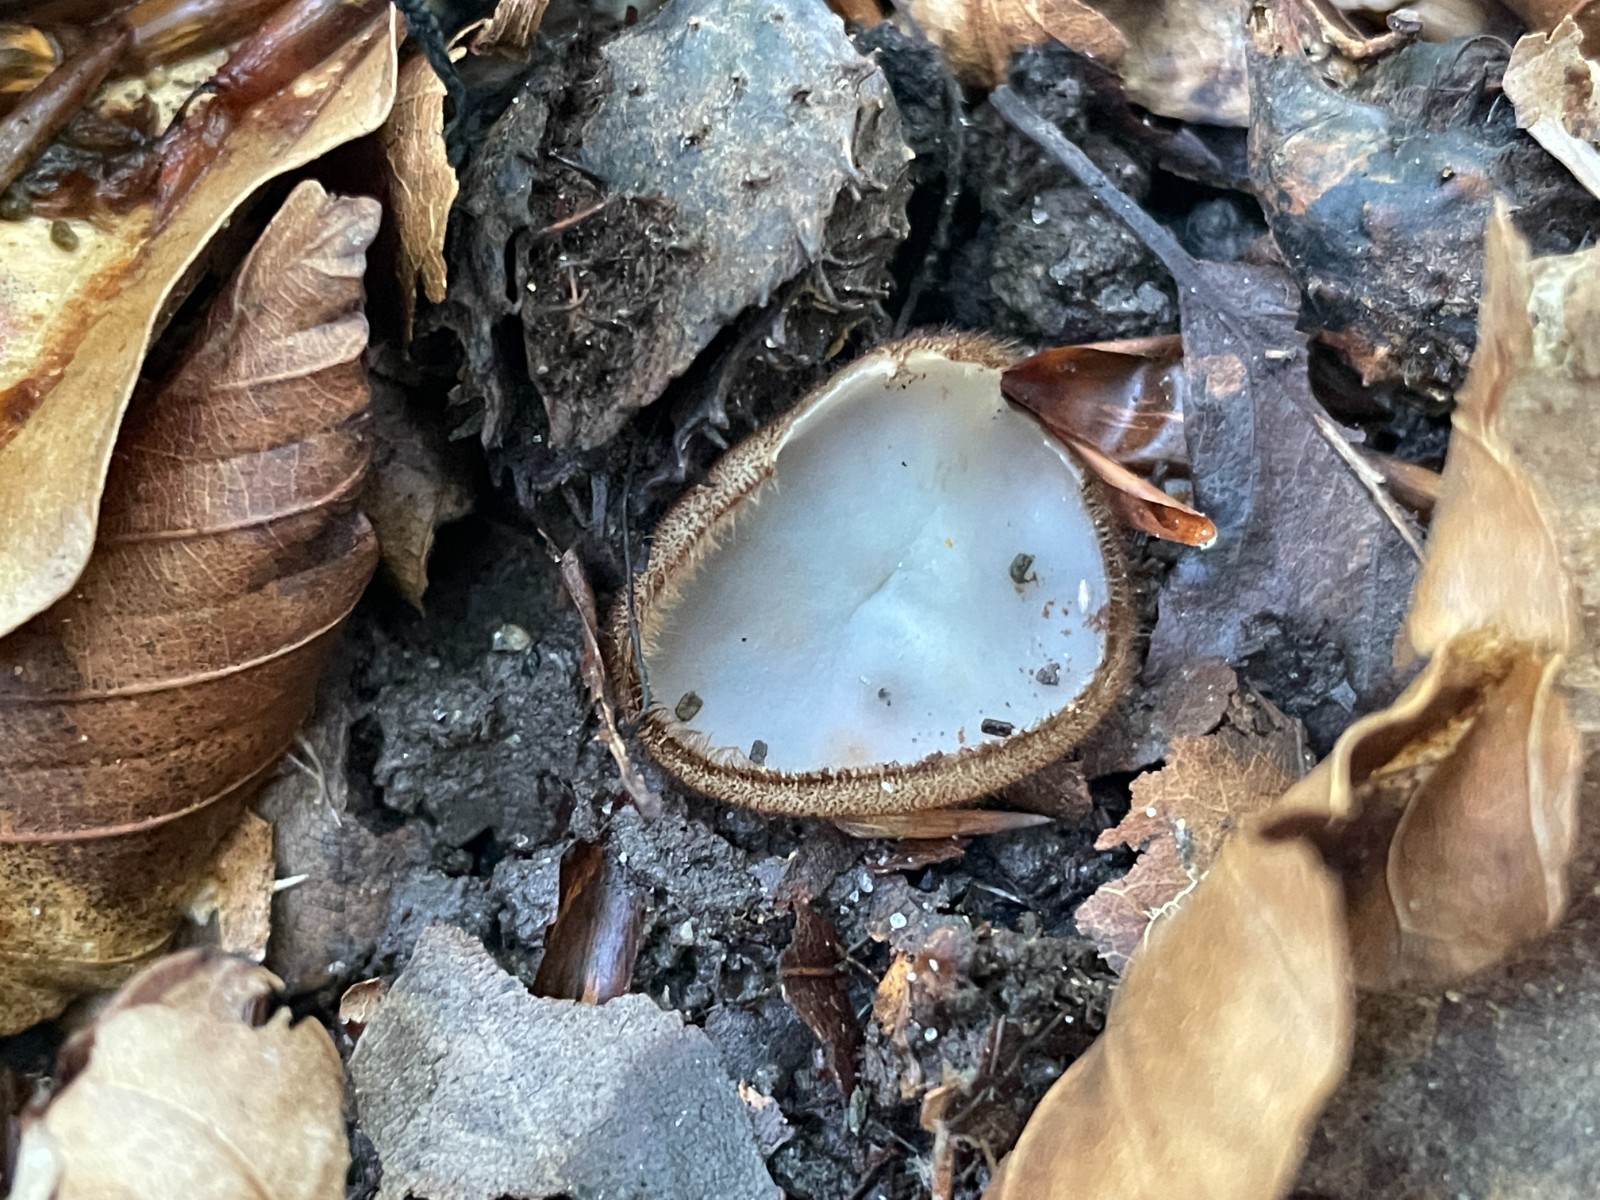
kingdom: Fungi
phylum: Ascomycota
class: Pezizomycetes
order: Pezizales
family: Pyronemataceae
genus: Humaria
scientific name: Humaria hemisphaerica
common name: halvkugleformet børstebæger
